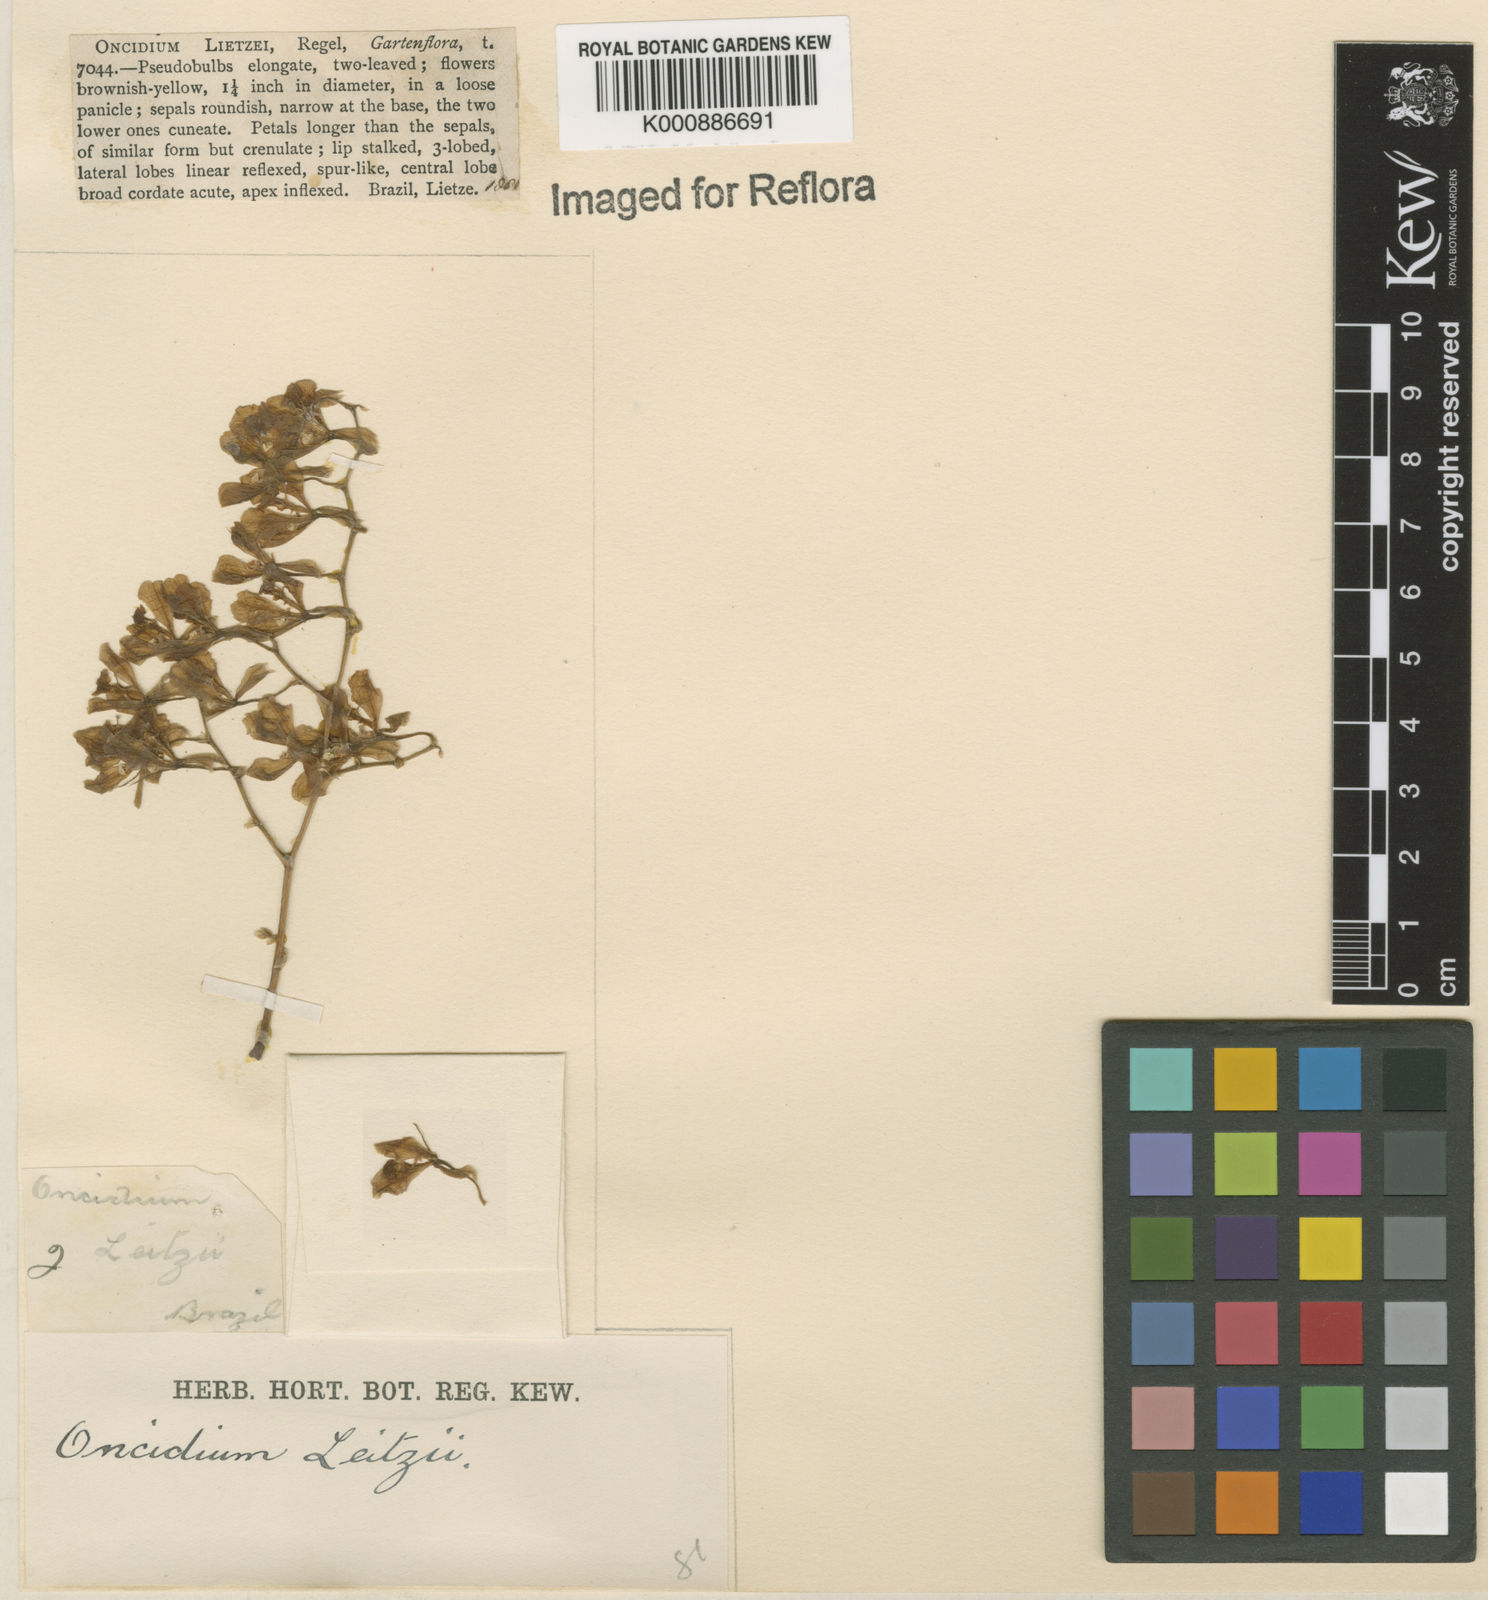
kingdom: Plantae
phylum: Tracheophyta
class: Liliopsida
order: Asparagales
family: Orchidaceae
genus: Gomesa
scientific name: Gomesa lietzei
